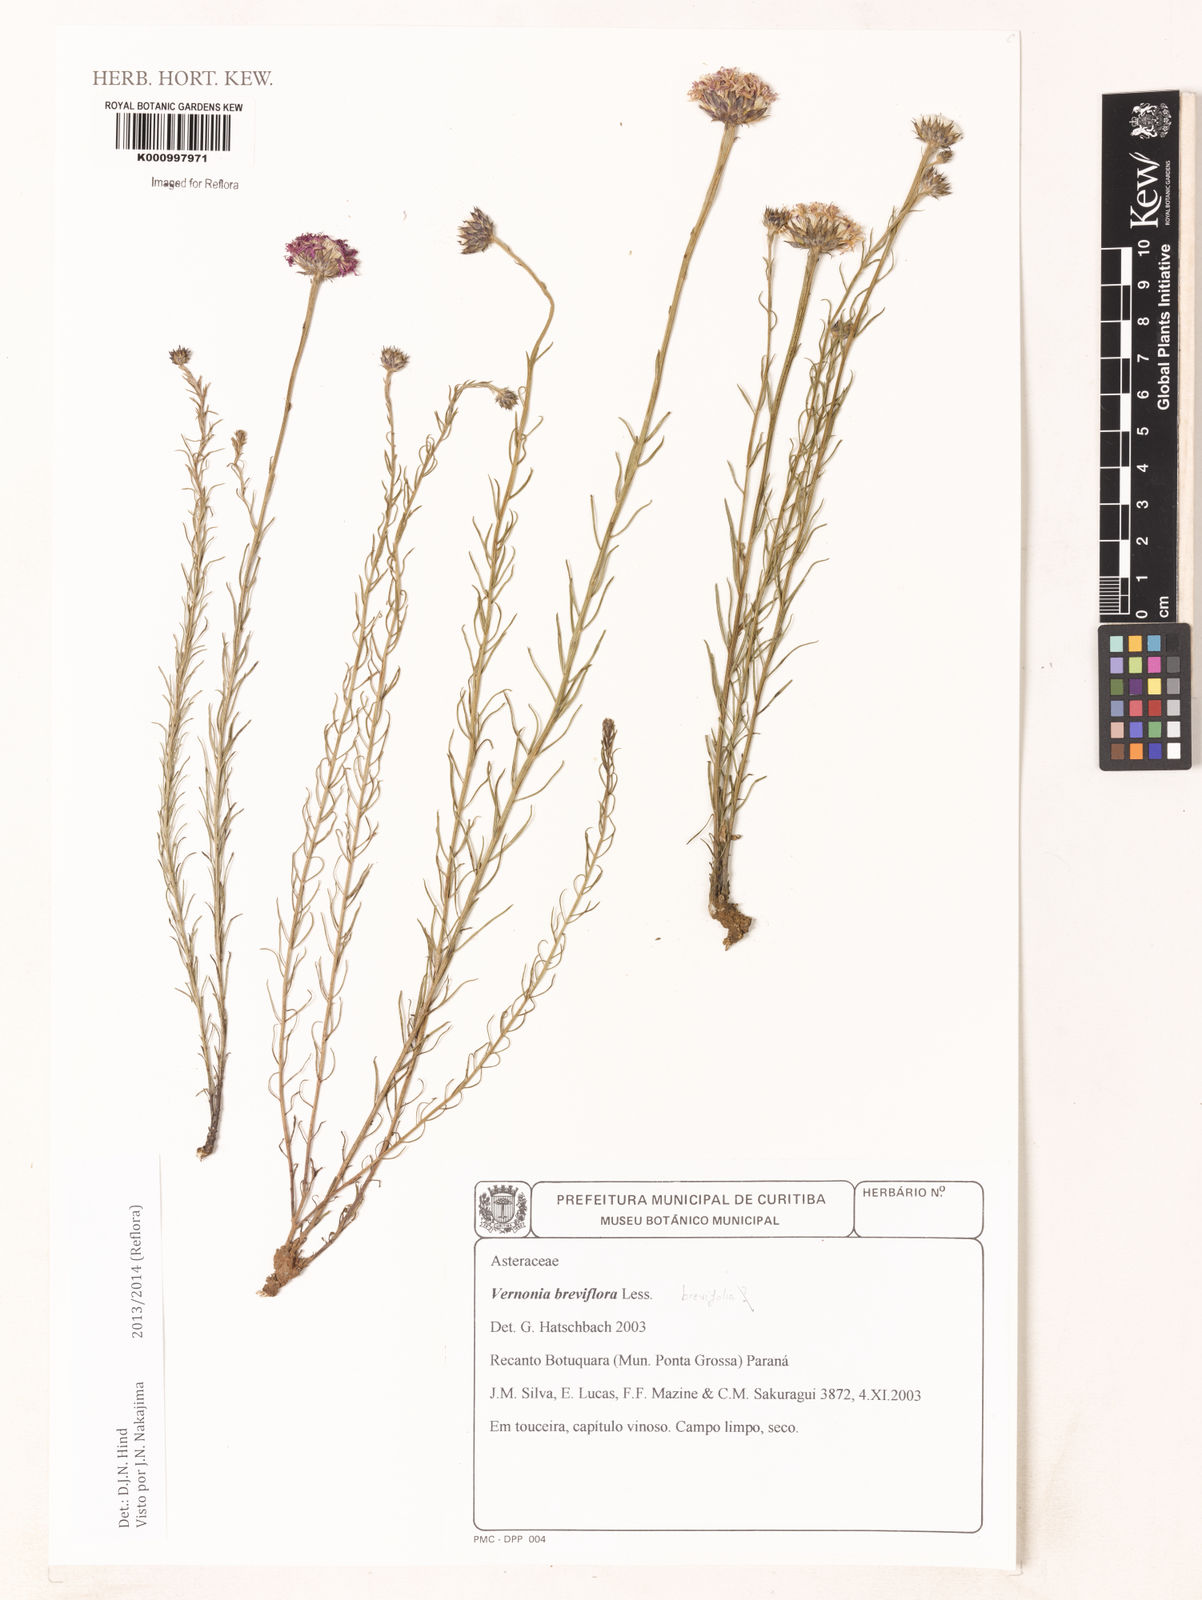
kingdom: Plantae
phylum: Tracheophyta
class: Magnoliopsida
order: Asterales
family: Asteraceae
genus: Lessingianthus
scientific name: Lessingianthus brevifolius
